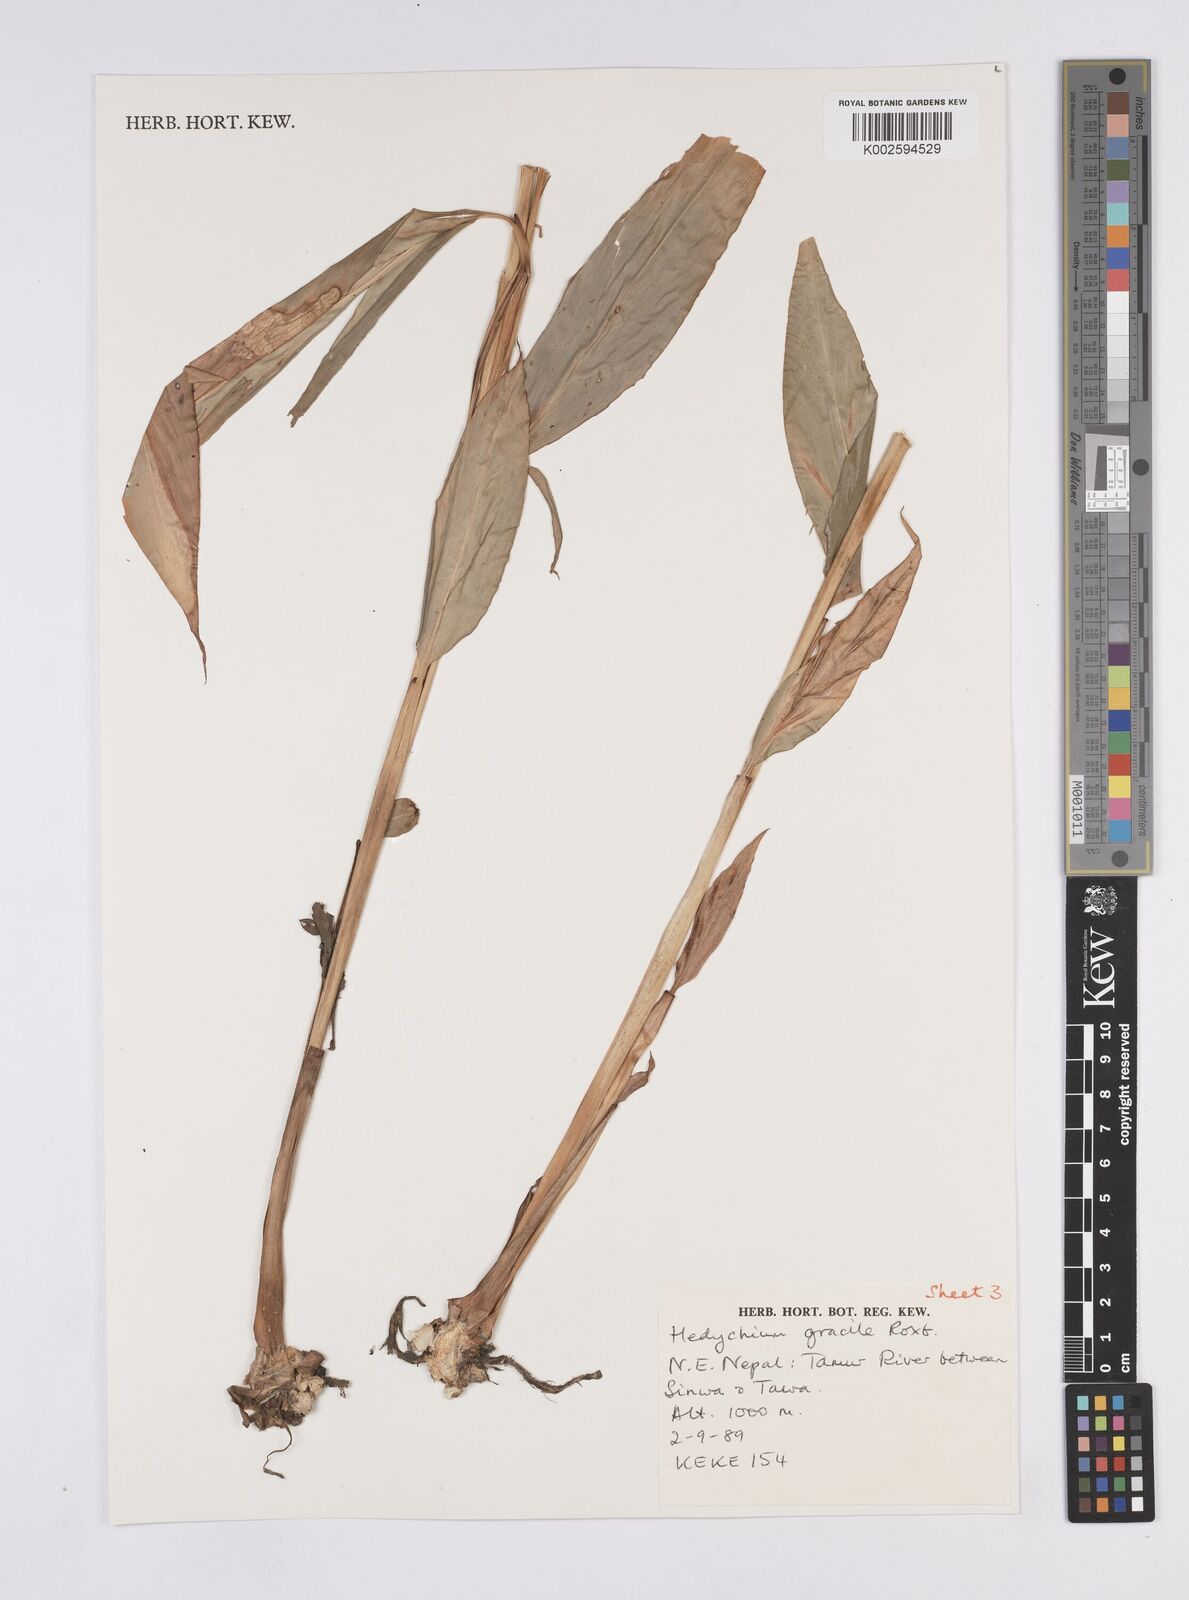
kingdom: Plantae
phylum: Tracheophyta
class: Liliopsida
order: Zingiberales
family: Zingiberaceae
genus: Hedychium
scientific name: Hedychium gracile
